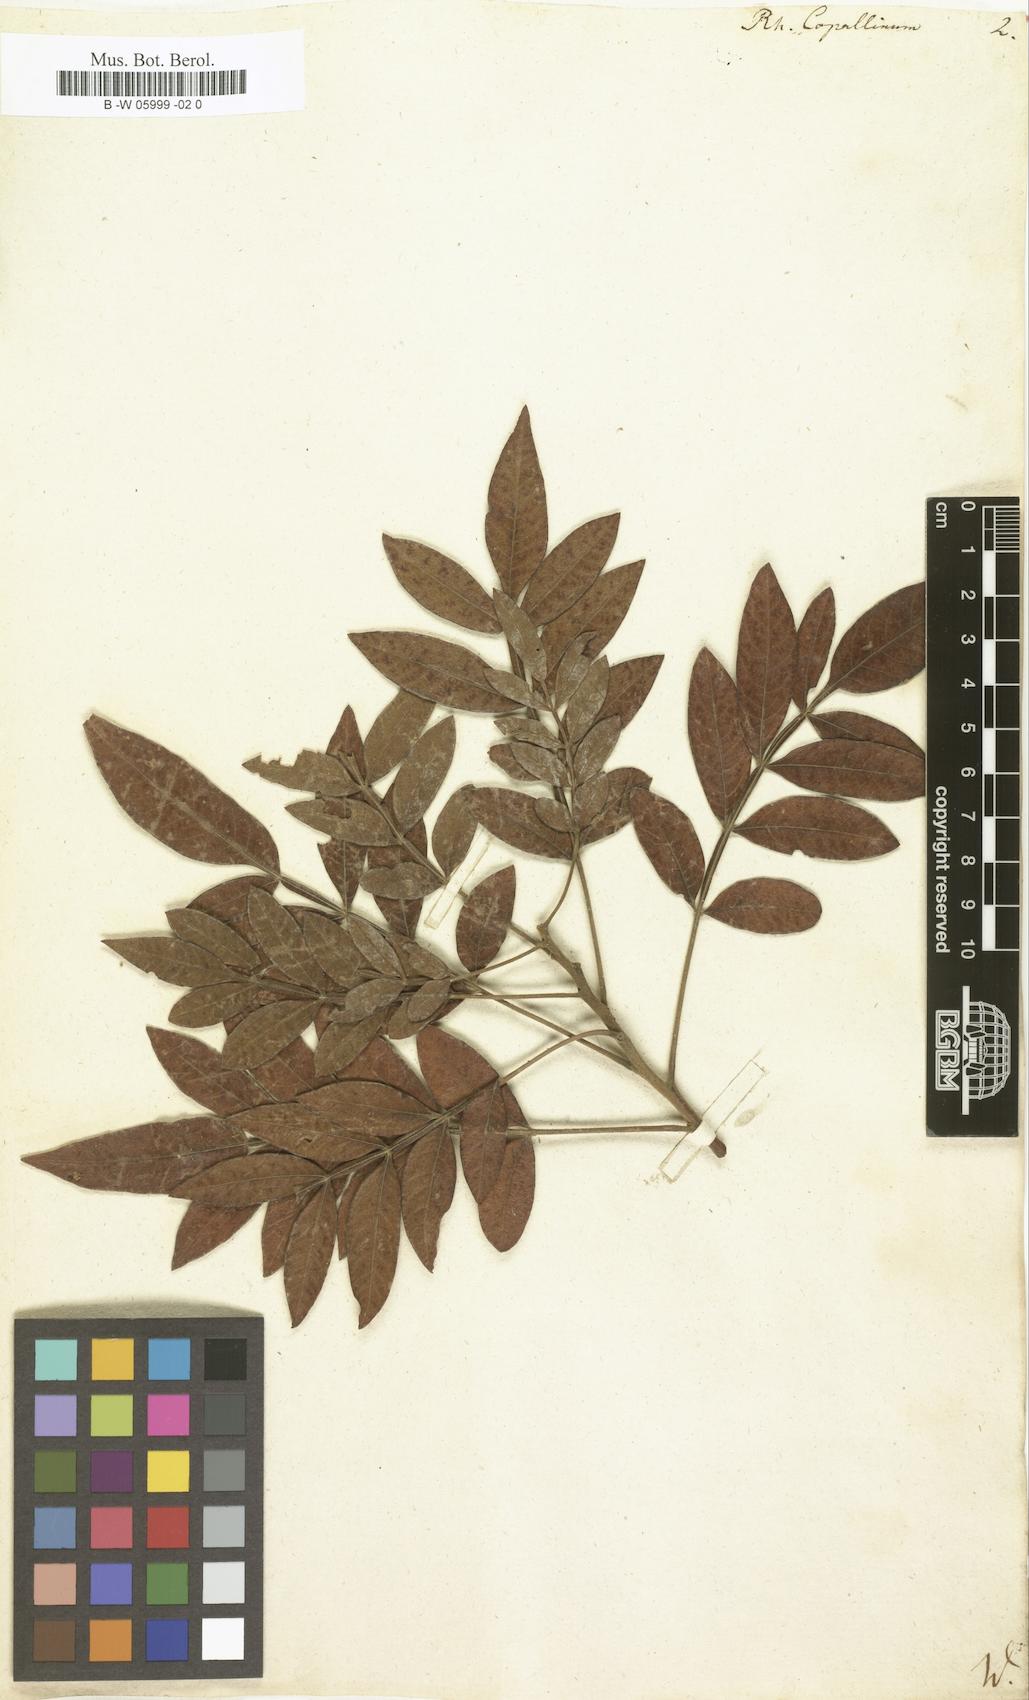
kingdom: Plantae
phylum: Tracheophyta
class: Magnoliopsida
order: Sapindales
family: Anacardiaceae
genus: Rhus
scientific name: Rhus copallina
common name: Shining sumac
